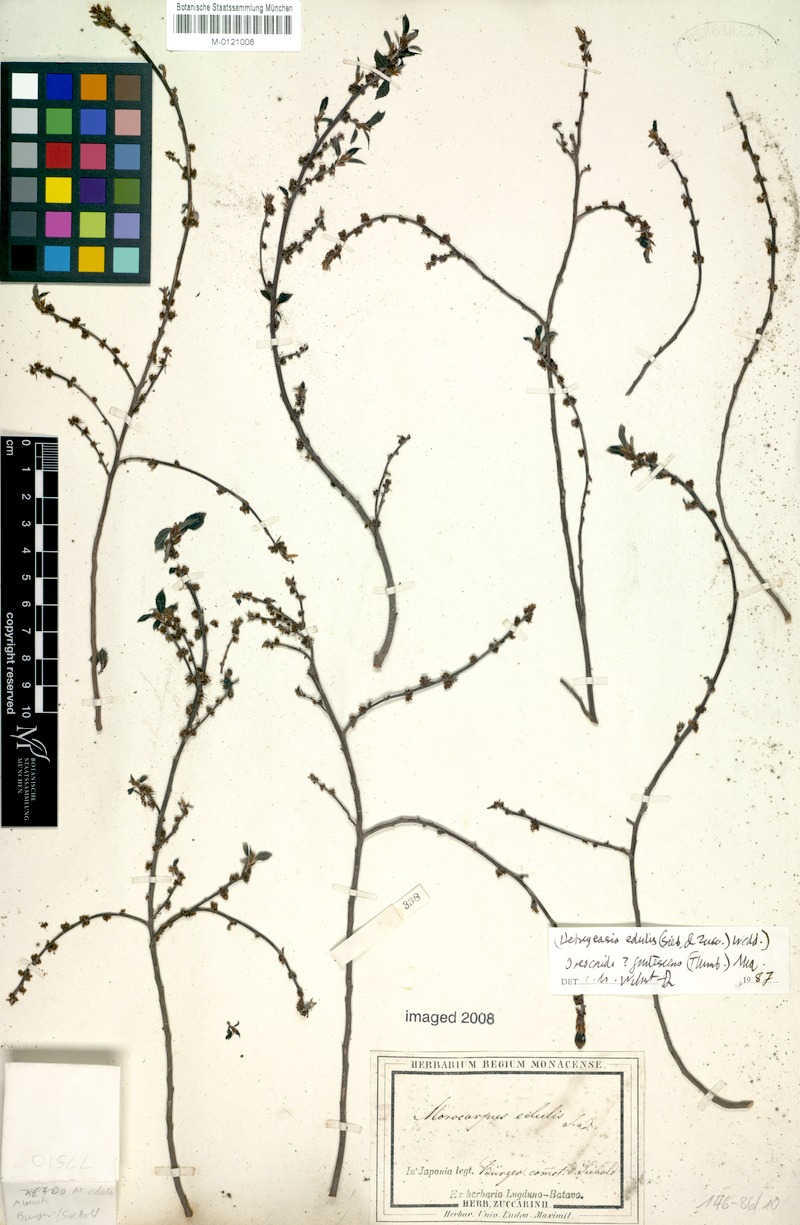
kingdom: Plantae
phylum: Tracheophyta
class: Magnoliopsida
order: Rosales
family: Urticaceae
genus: Debregeasia
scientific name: Debregeasia edulis
